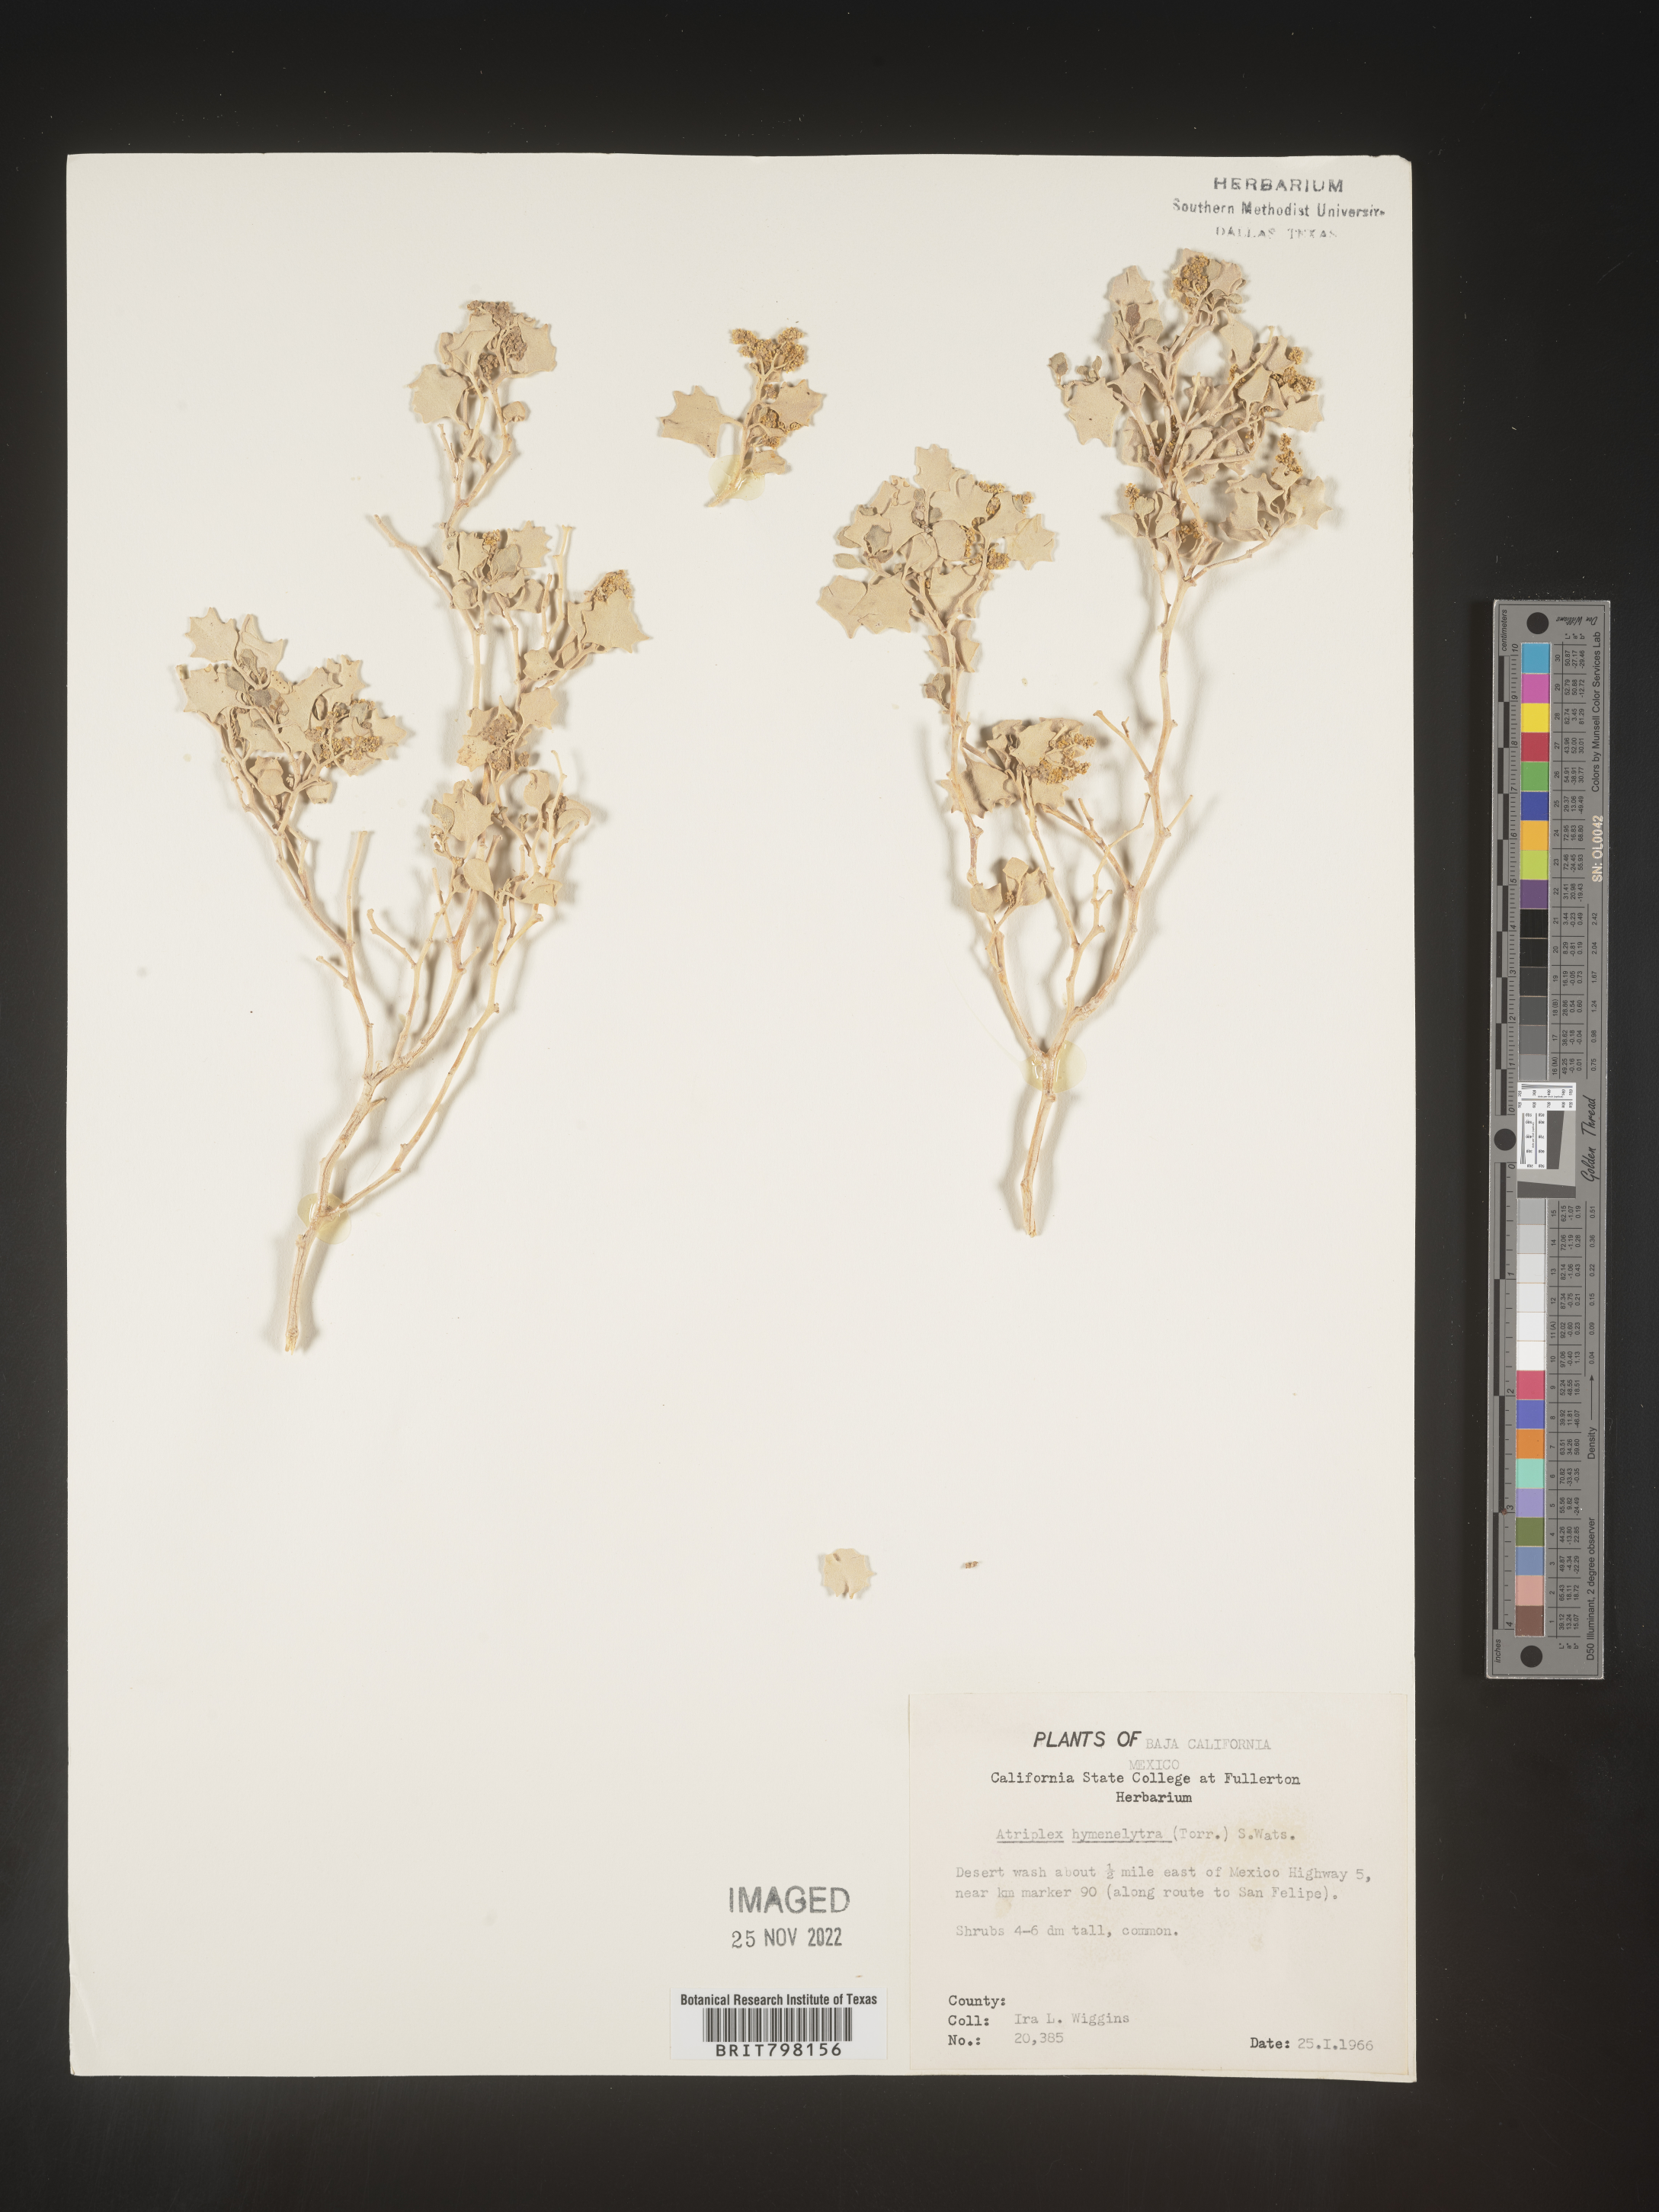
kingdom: Plantae
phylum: Tracheophyta
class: Magnoliopsida
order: Caryophyllales
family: Amaranthaceae
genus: Atriplex
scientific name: Atriplex
